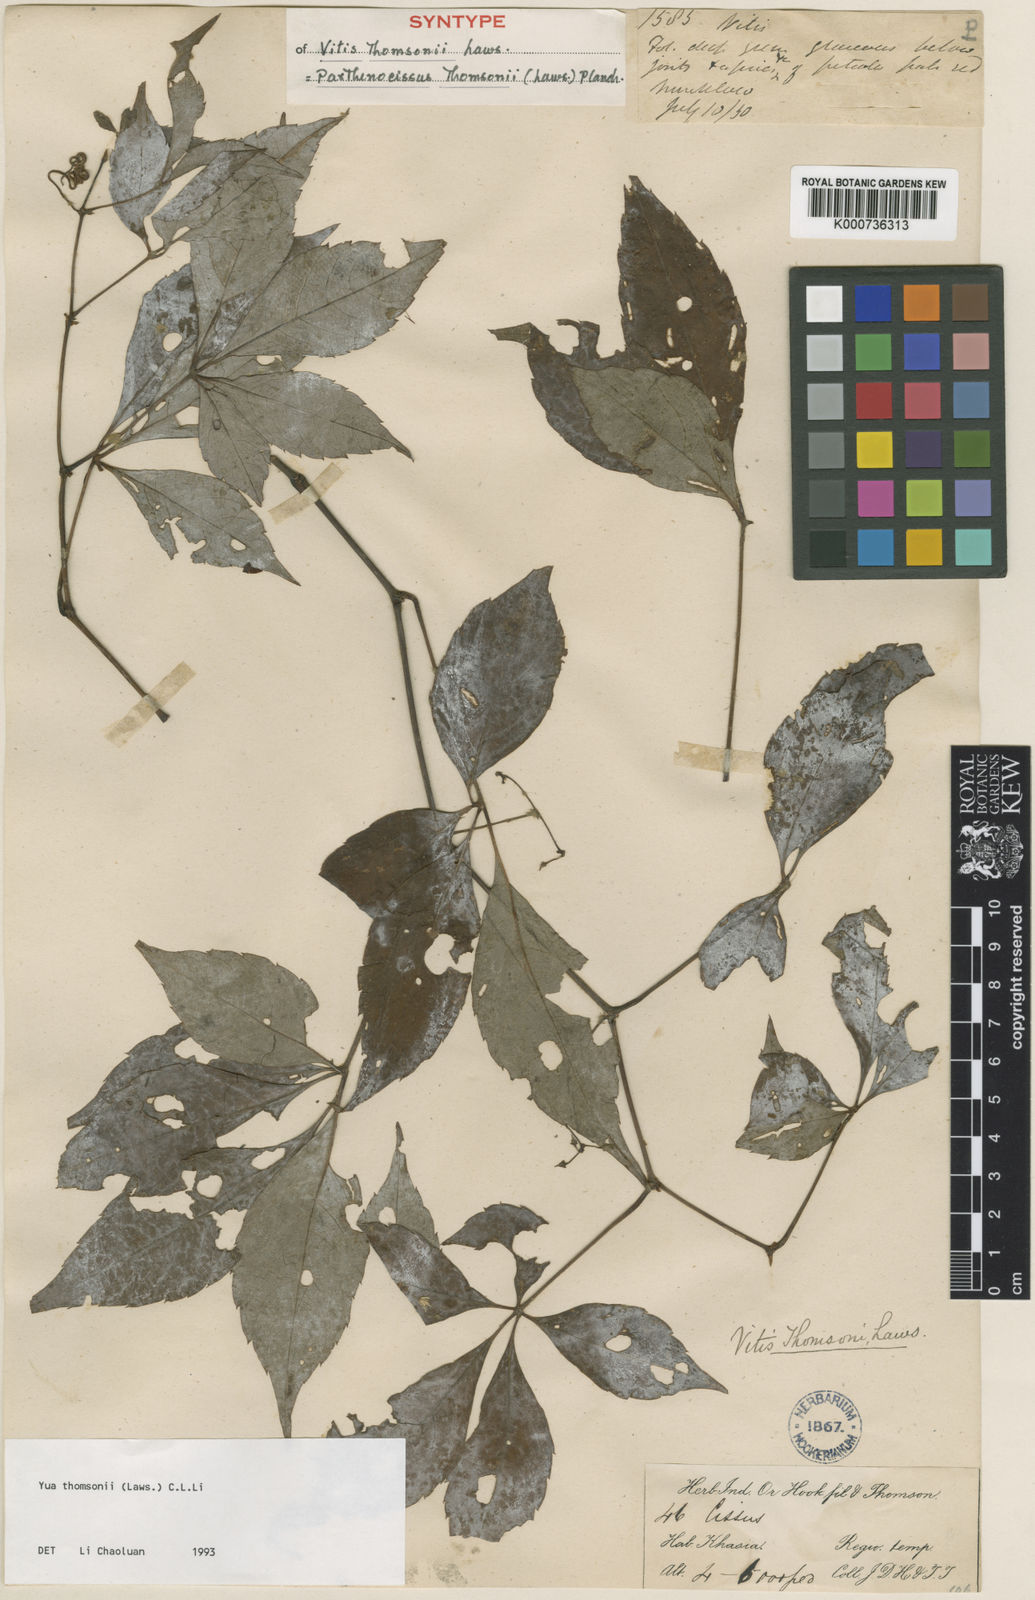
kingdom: Plantae
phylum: Tracheophyta
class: Magnoliopsida
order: Vitales
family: Vitaceae
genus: Yua
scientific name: Yua thomsonii
